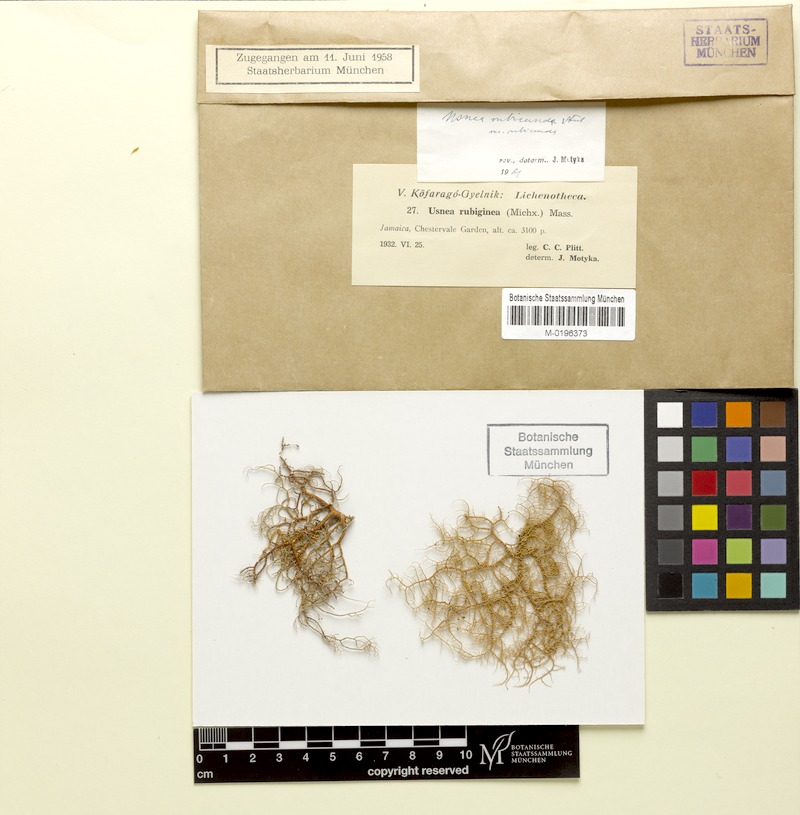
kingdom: Fungi
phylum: Ascomycota
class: Lecanoromycetes
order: Lecanorales
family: Parmeliaceae
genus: Usnea
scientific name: Usnea rubicunda
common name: Red beard lichen
